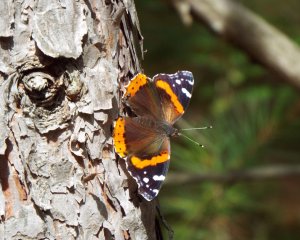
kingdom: Animalia
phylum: Arthropoda
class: Insecta
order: Lepidoptera
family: Nymphalidae
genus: Vanessa
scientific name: Vanessa atalanta
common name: Red Admiral
